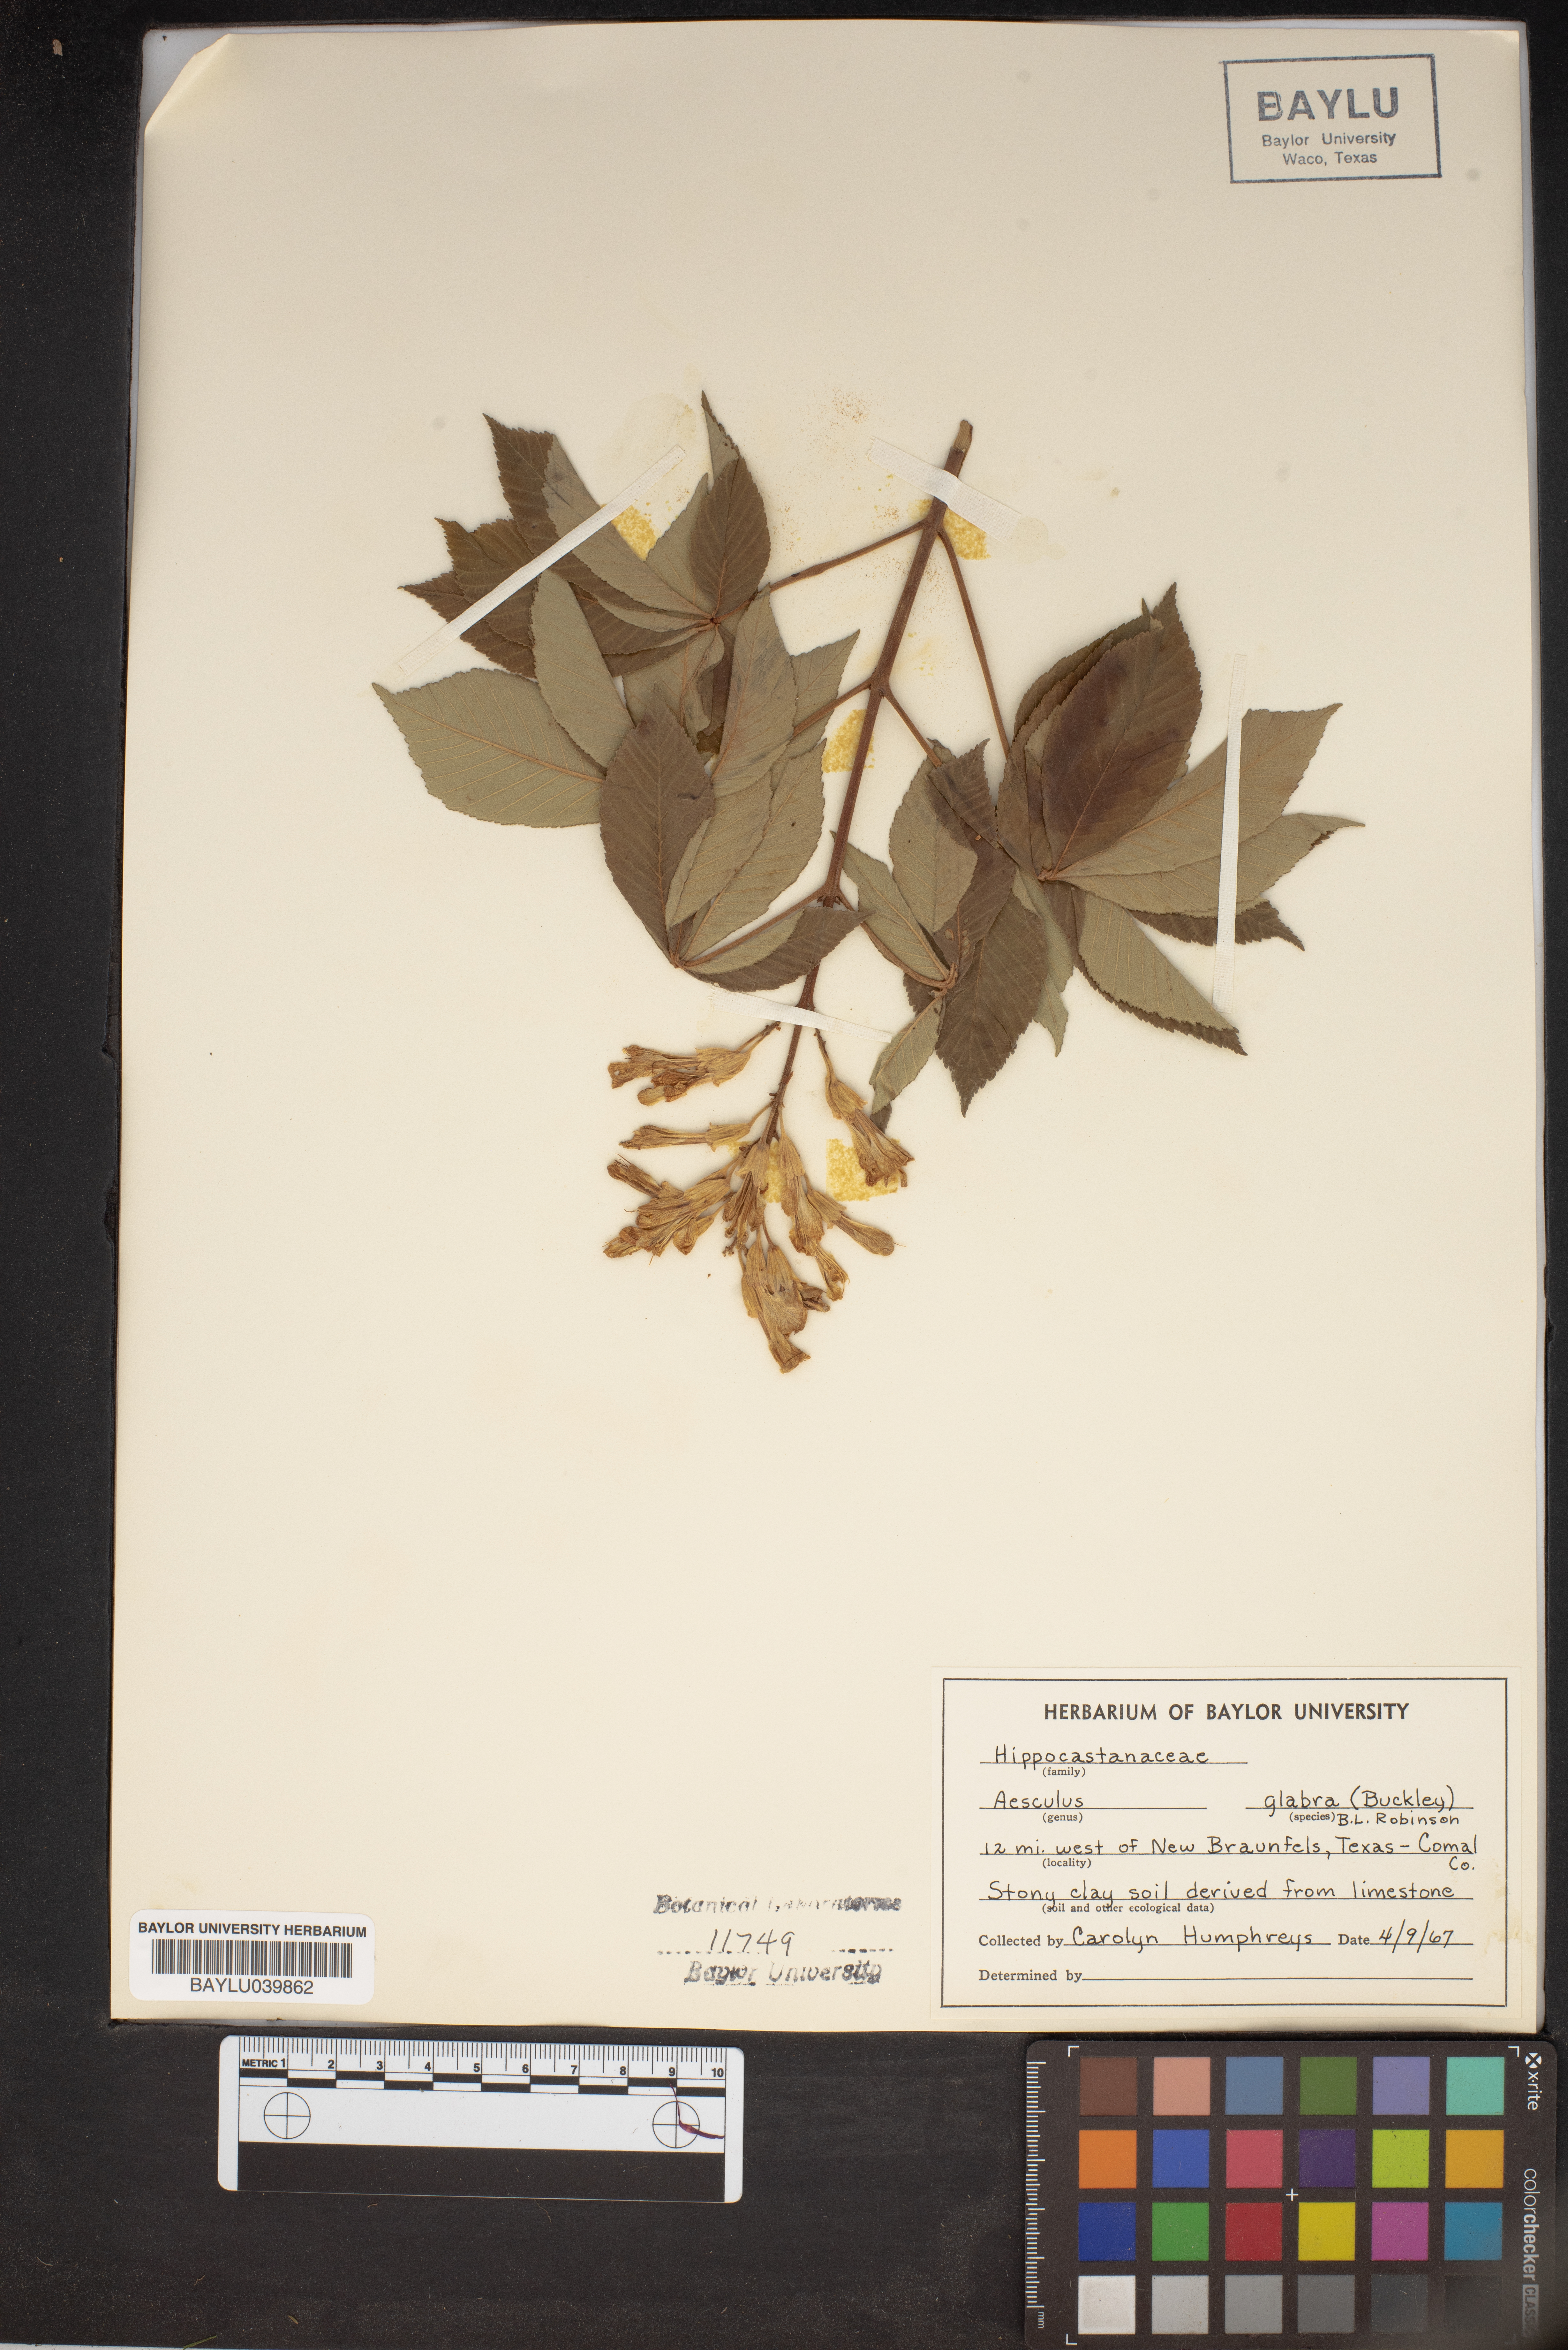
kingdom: Plantae
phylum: Tracheophyta
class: Magnoliopsida
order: Sapindales
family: Sapindaceae
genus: Aesculus
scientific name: Aesculus glabra
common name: Ohio buckeye
